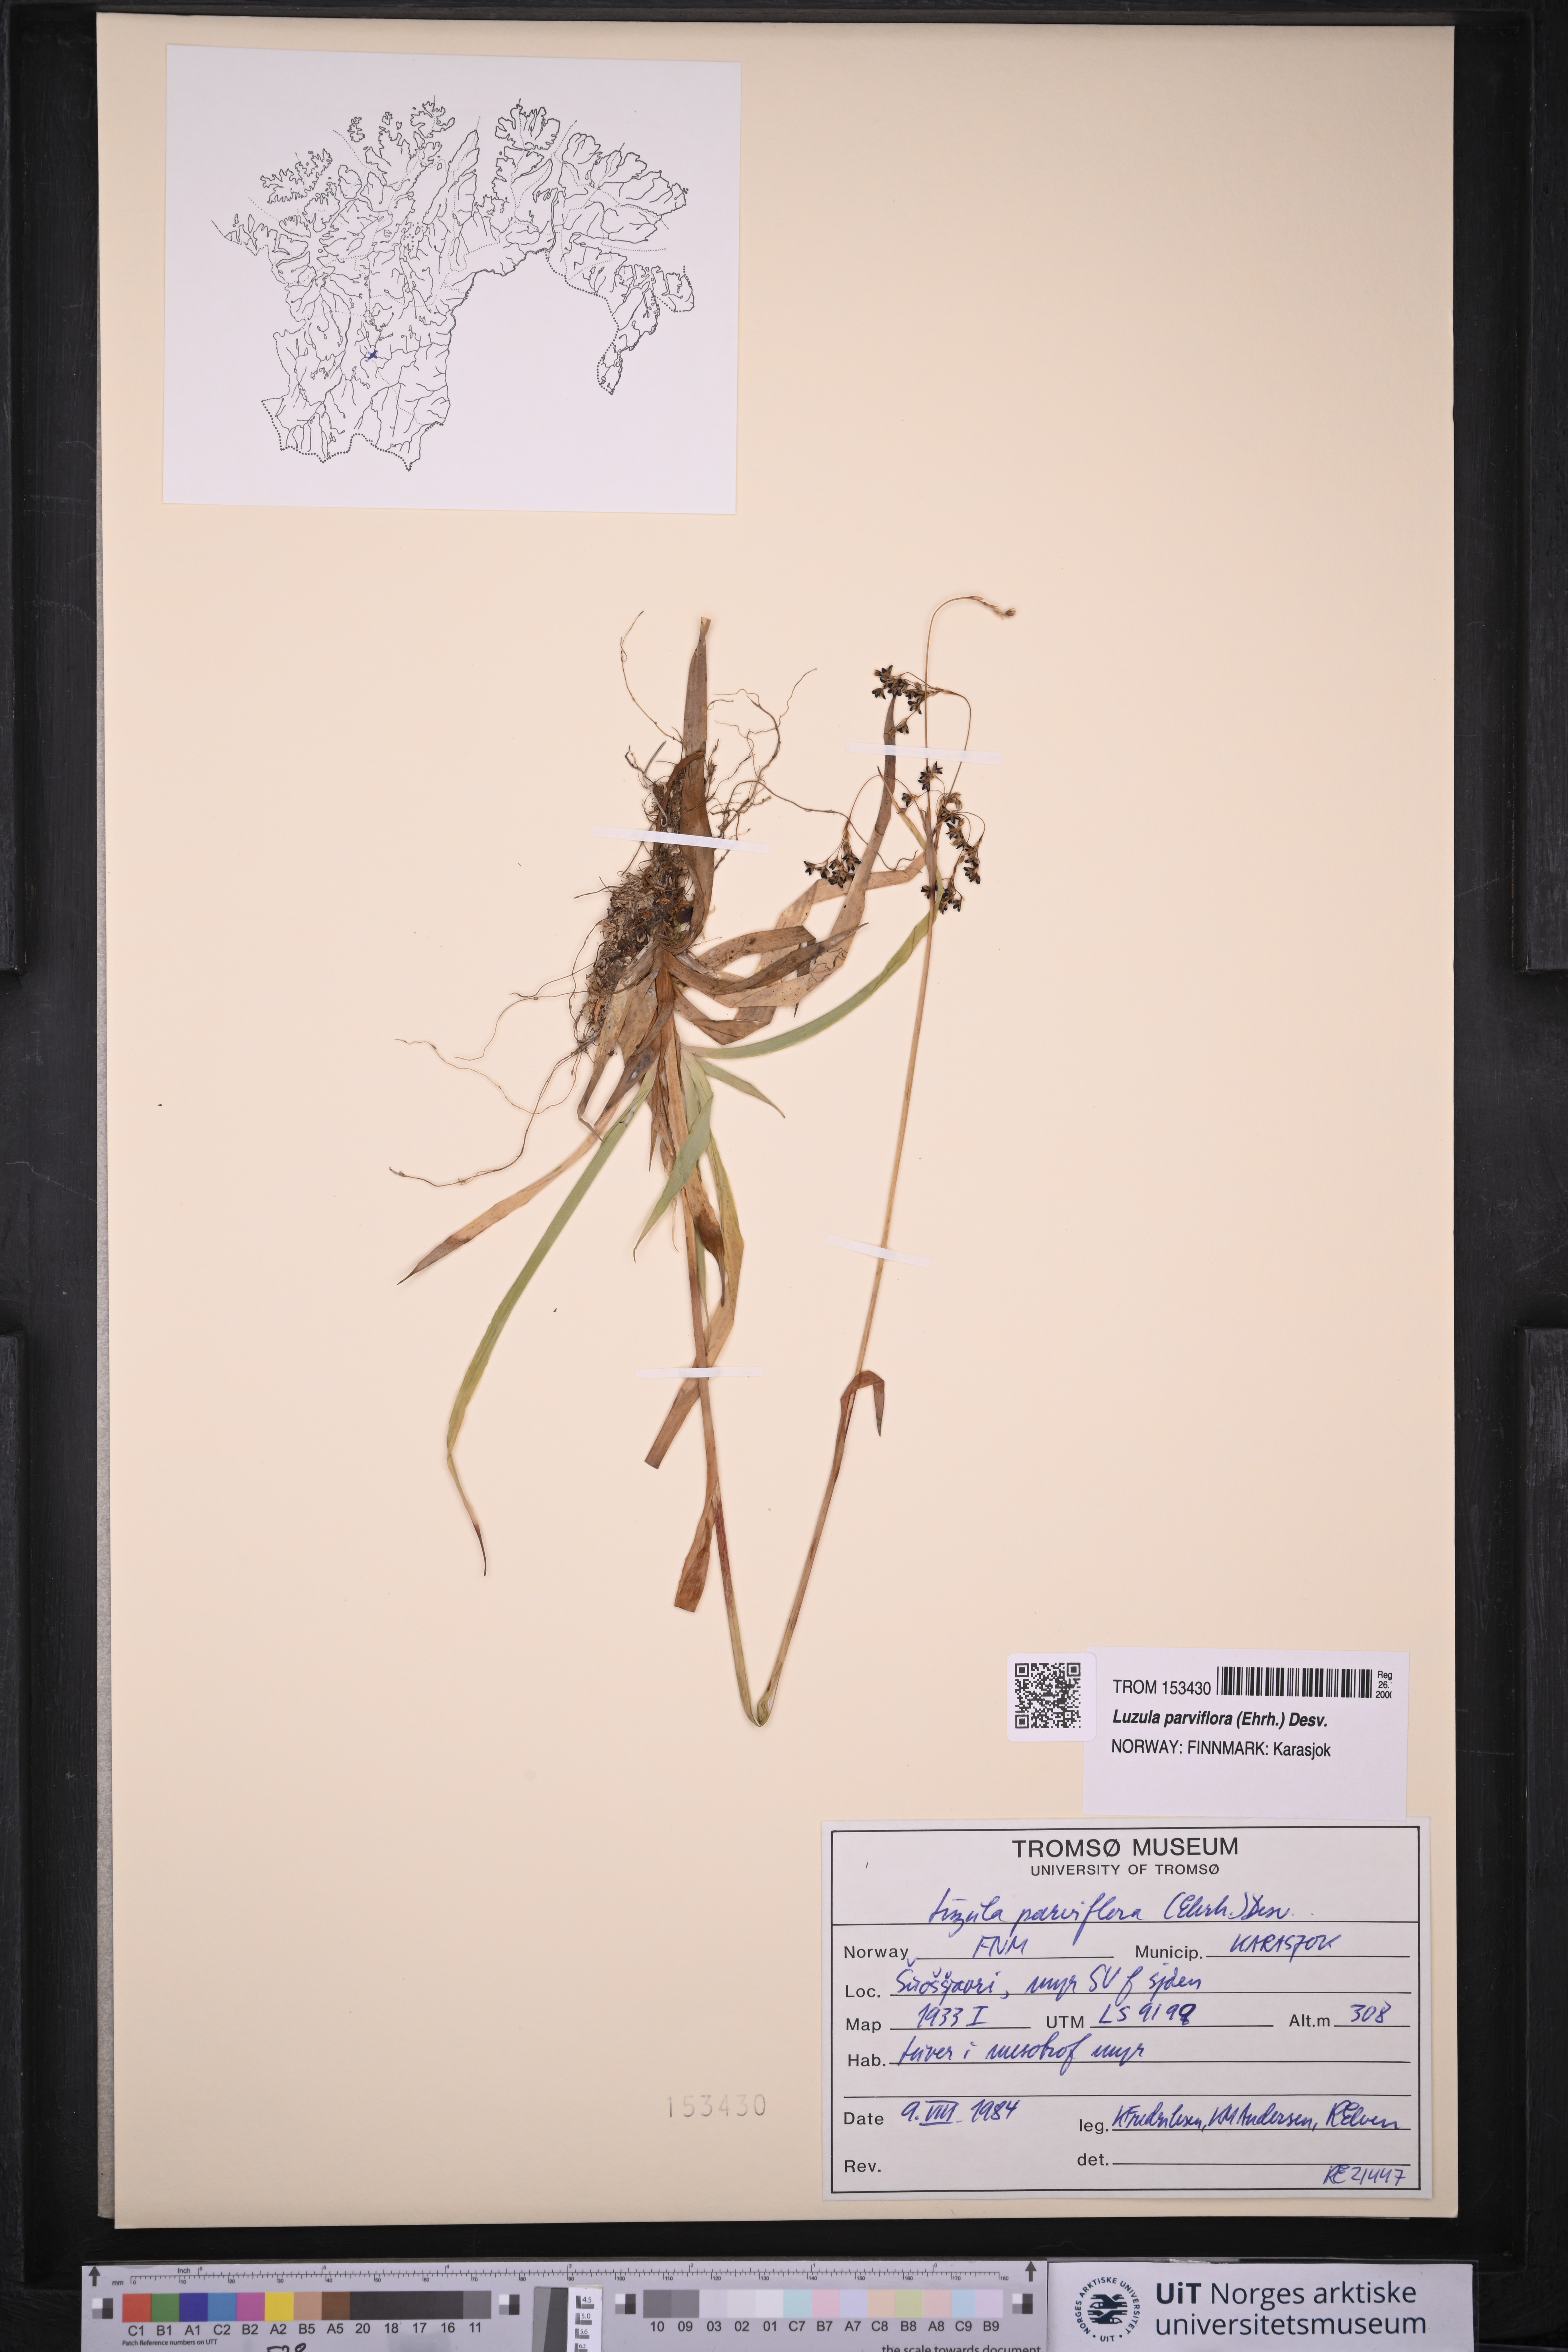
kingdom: Plantae
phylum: Tracheophyta
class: Liliopsida
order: Poales
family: Juncaceae
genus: Luzula
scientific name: Luzula parviflora
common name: Millet woodrush
